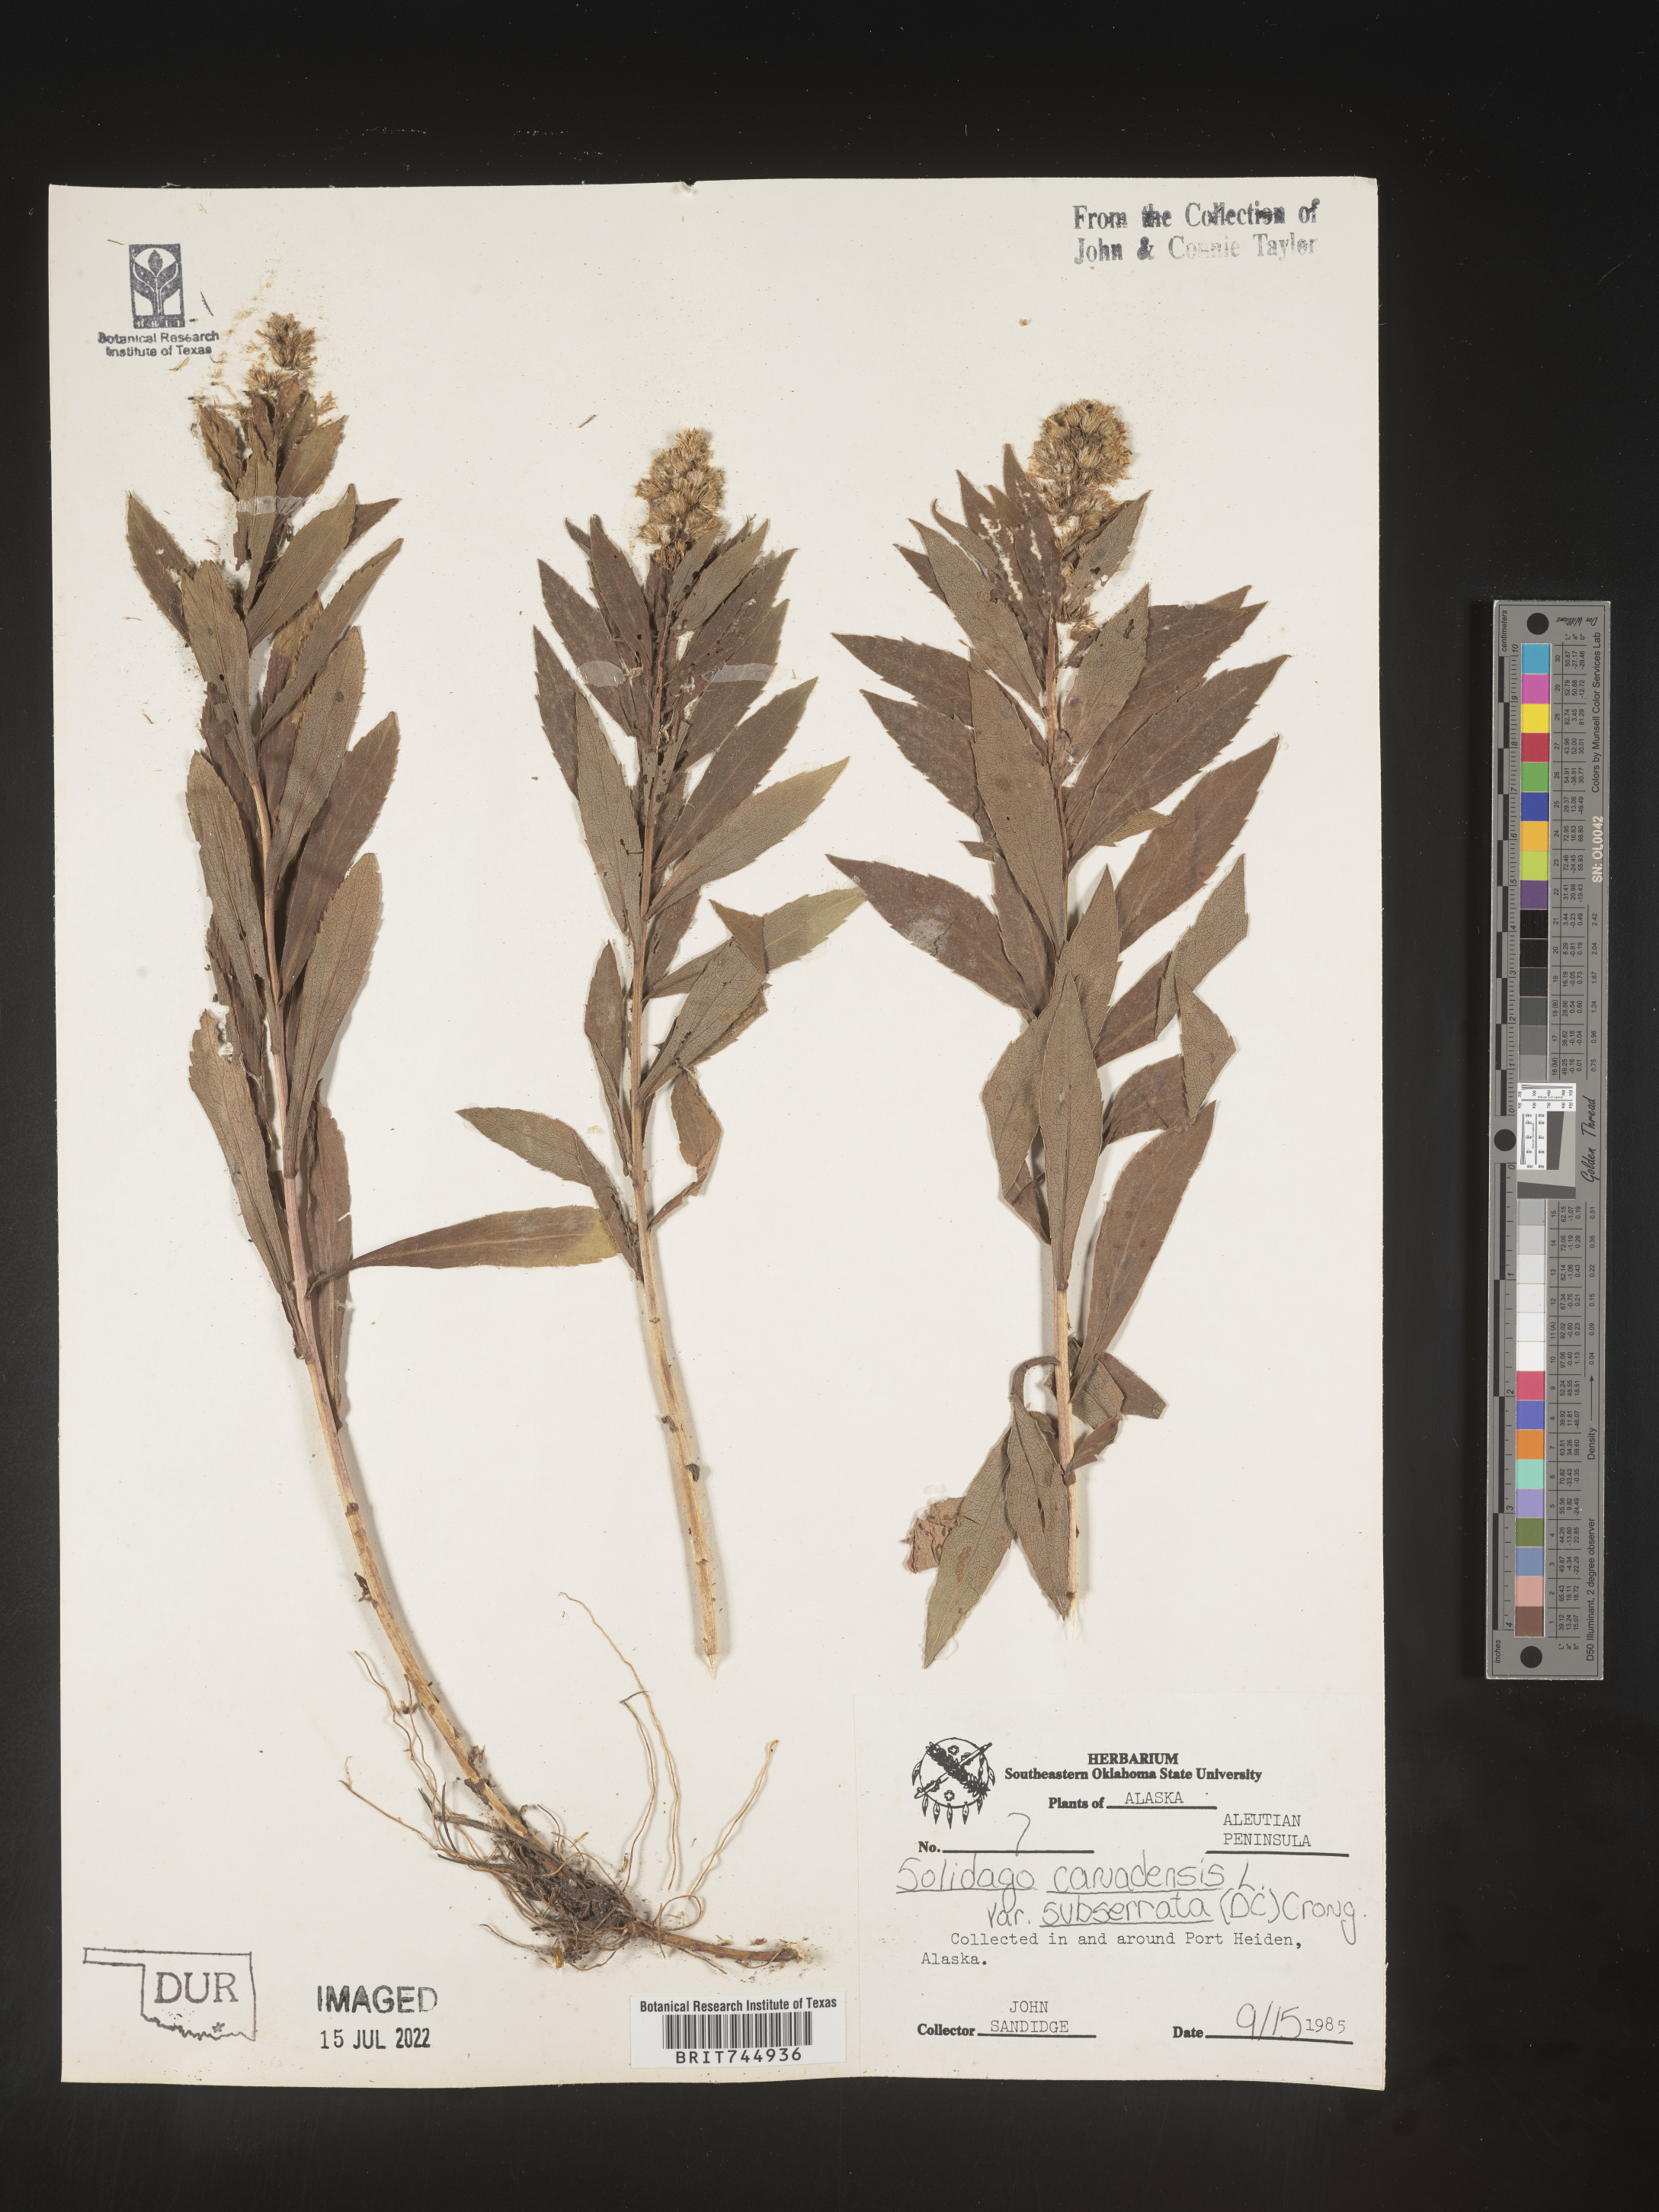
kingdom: Plantae
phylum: Tracheophyta
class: Magnoliopsida
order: Asterales
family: Asteraceae
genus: Solidago
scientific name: Solidago lepida
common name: Western canada goldenrod
